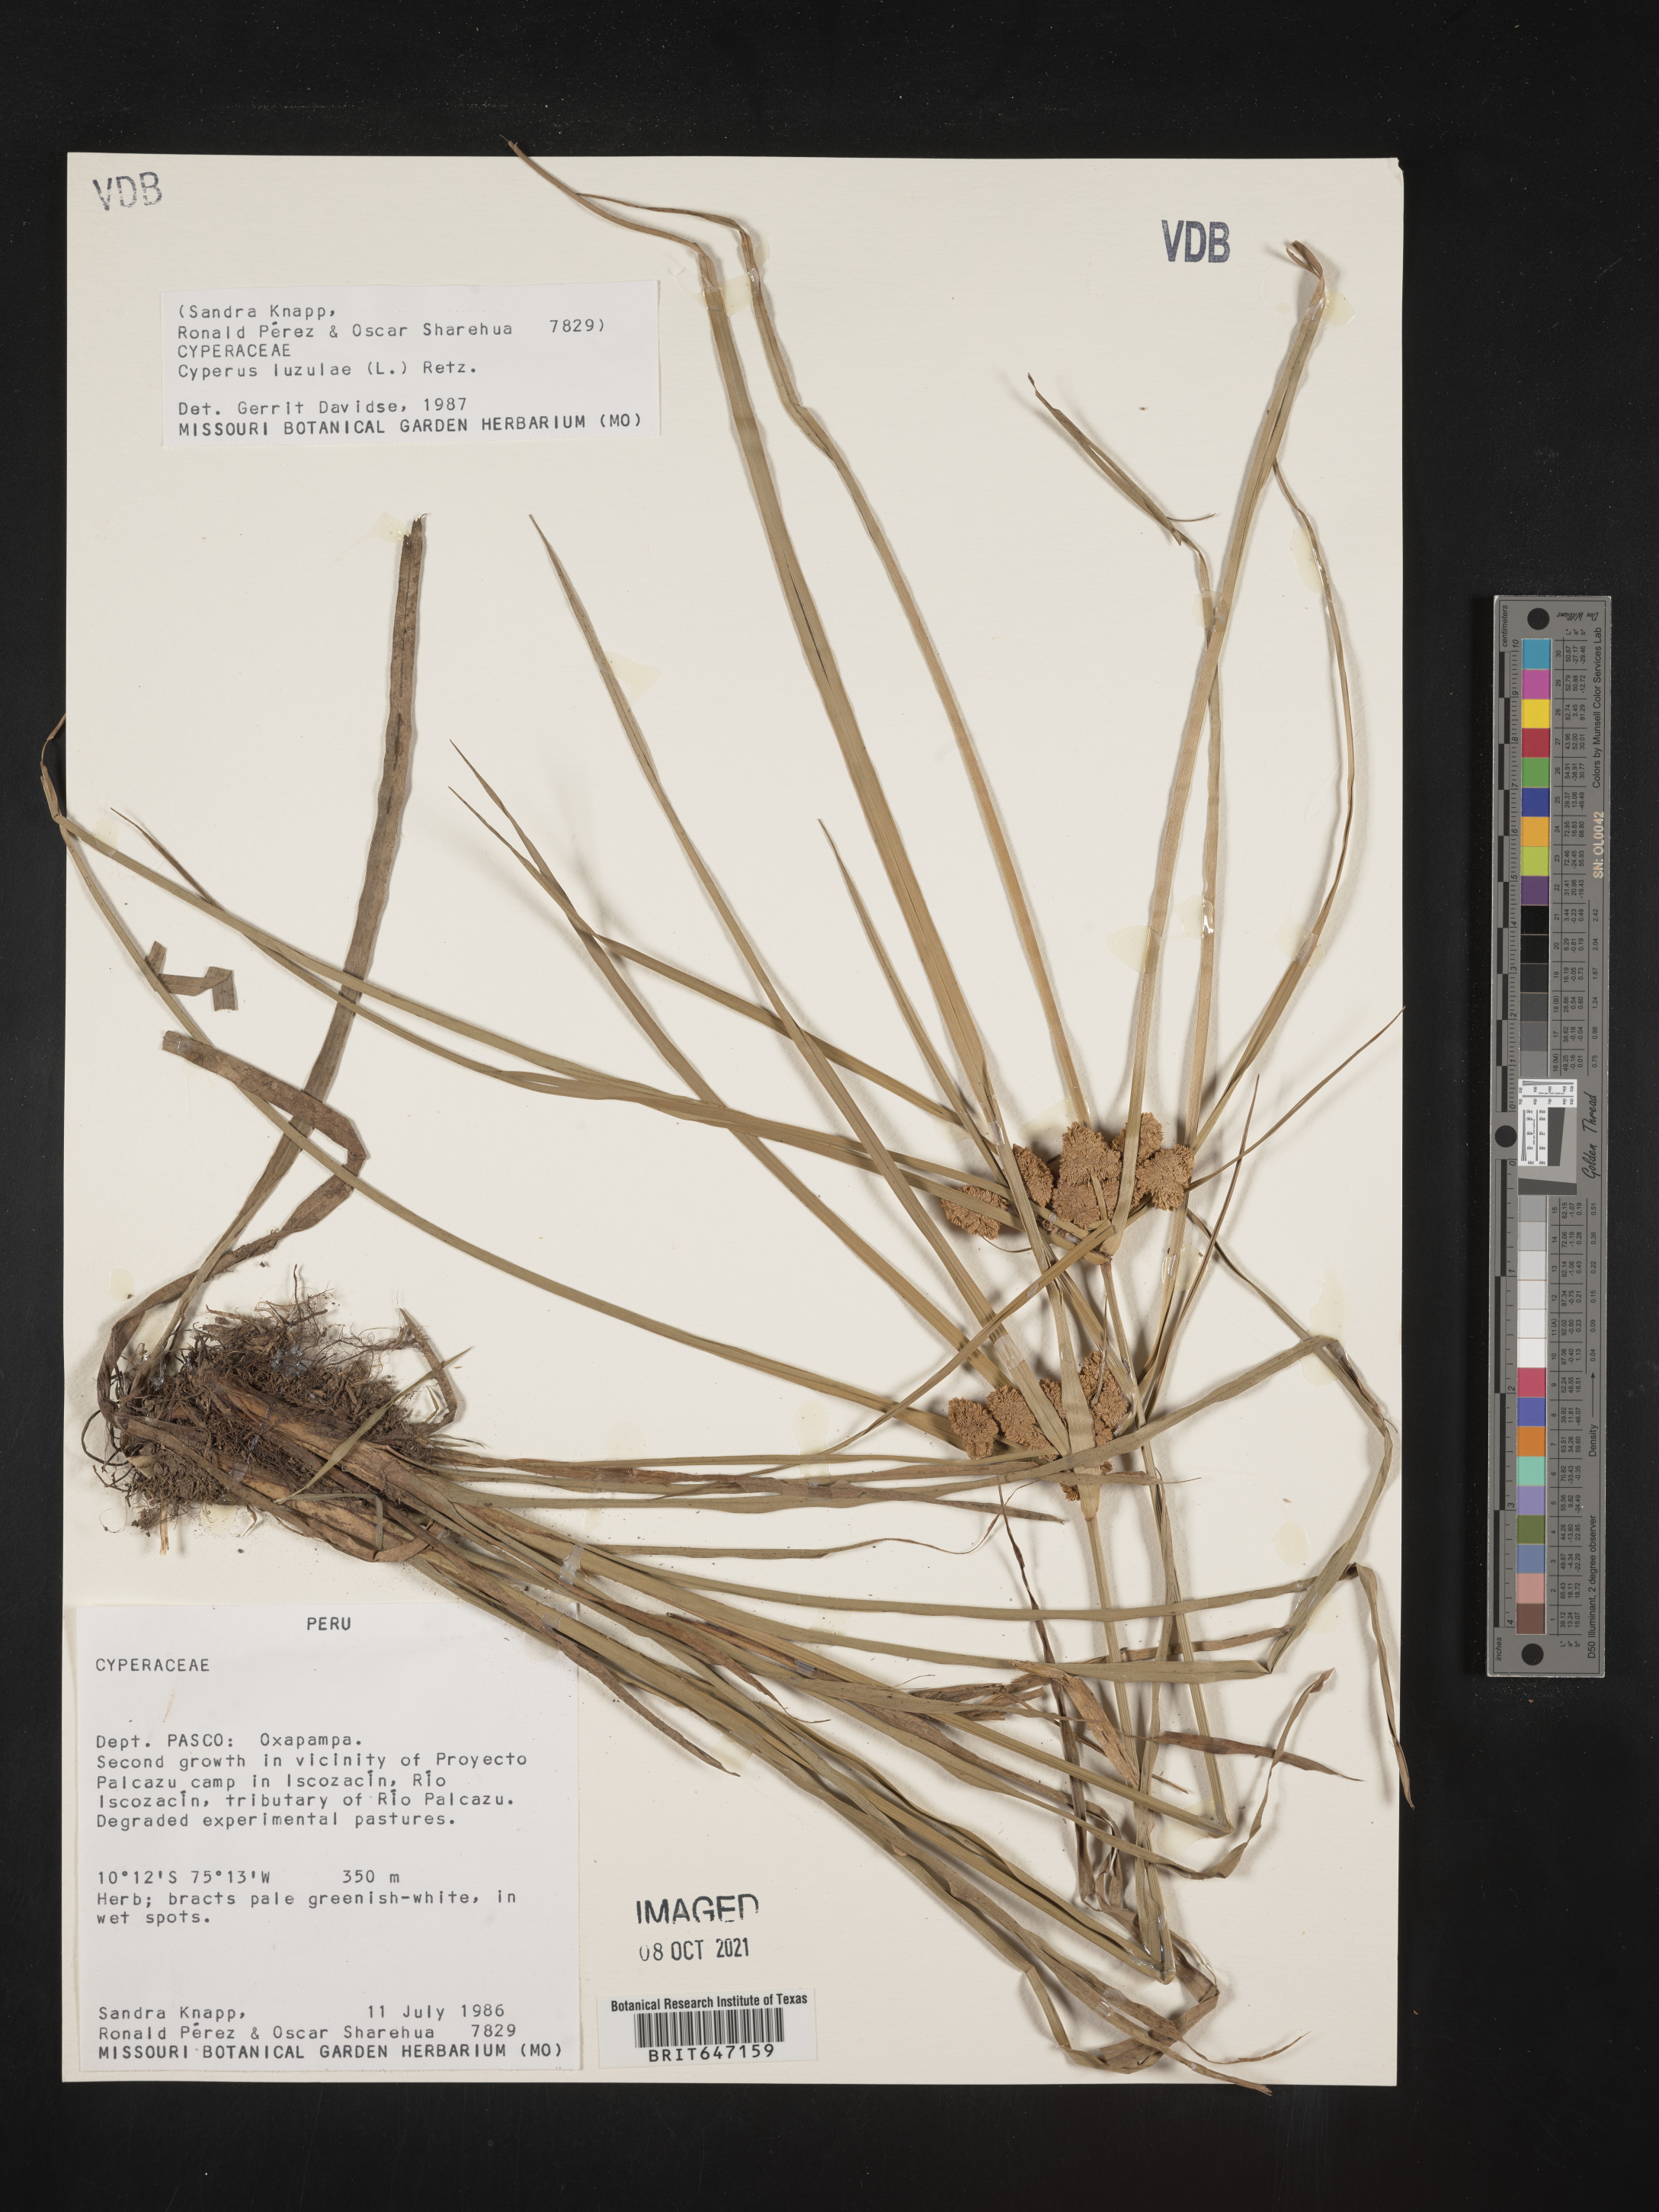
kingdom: Plantae
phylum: Tracheophyta
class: Liliopsida
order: Poales
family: Cyperaceae
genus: Cyperus
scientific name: Cyperus luzulae
